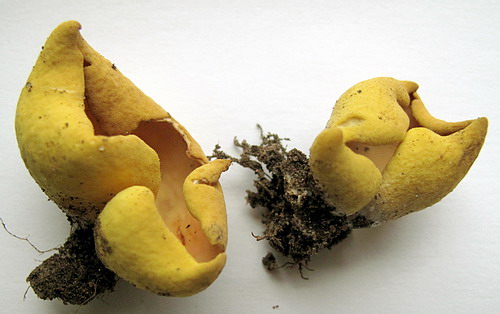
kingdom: Fungi
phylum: Ascomycota
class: Pezizomycetes
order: Pezizales
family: Otideaceae
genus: Otidea
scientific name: Otidea cantharella
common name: citrongul ørebæger
